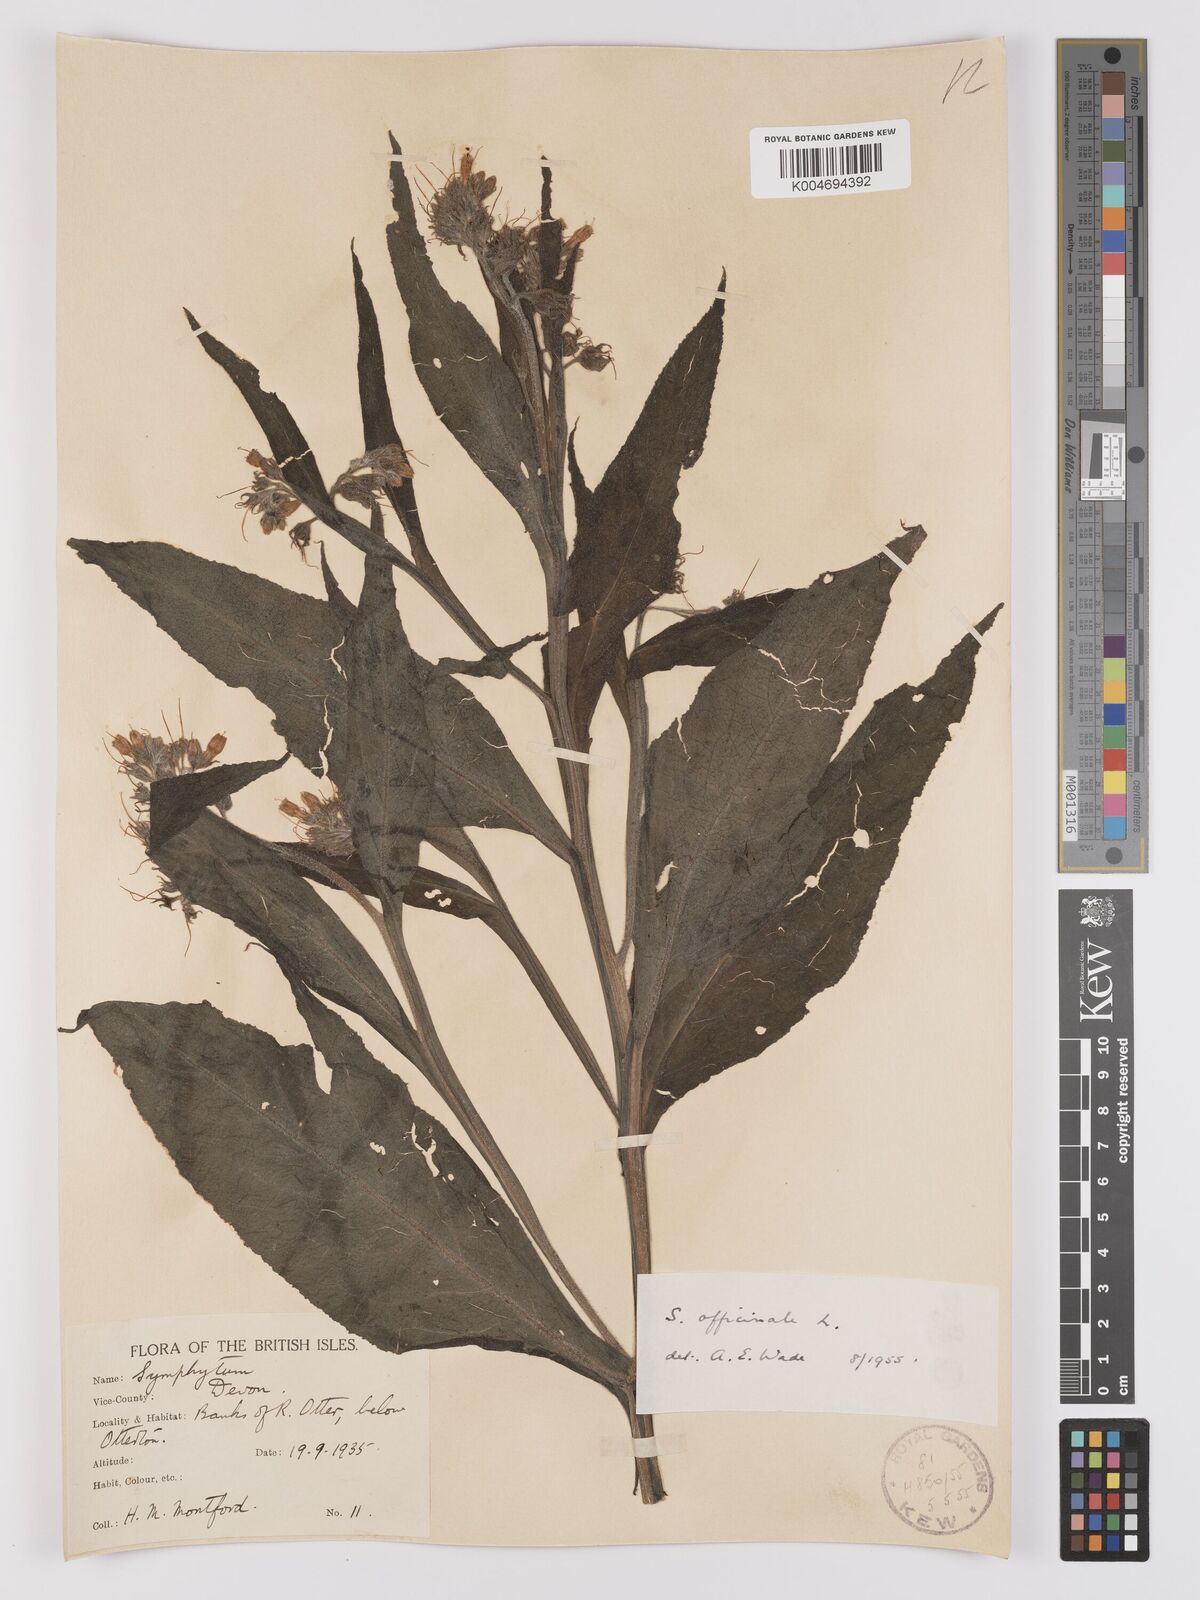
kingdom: Plantae
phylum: Tracheophyta
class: Magnoliopsida
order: Boraginales
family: Boraginaceae
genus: Symphytum
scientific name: Symphytum officinale
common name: Common comfrey
